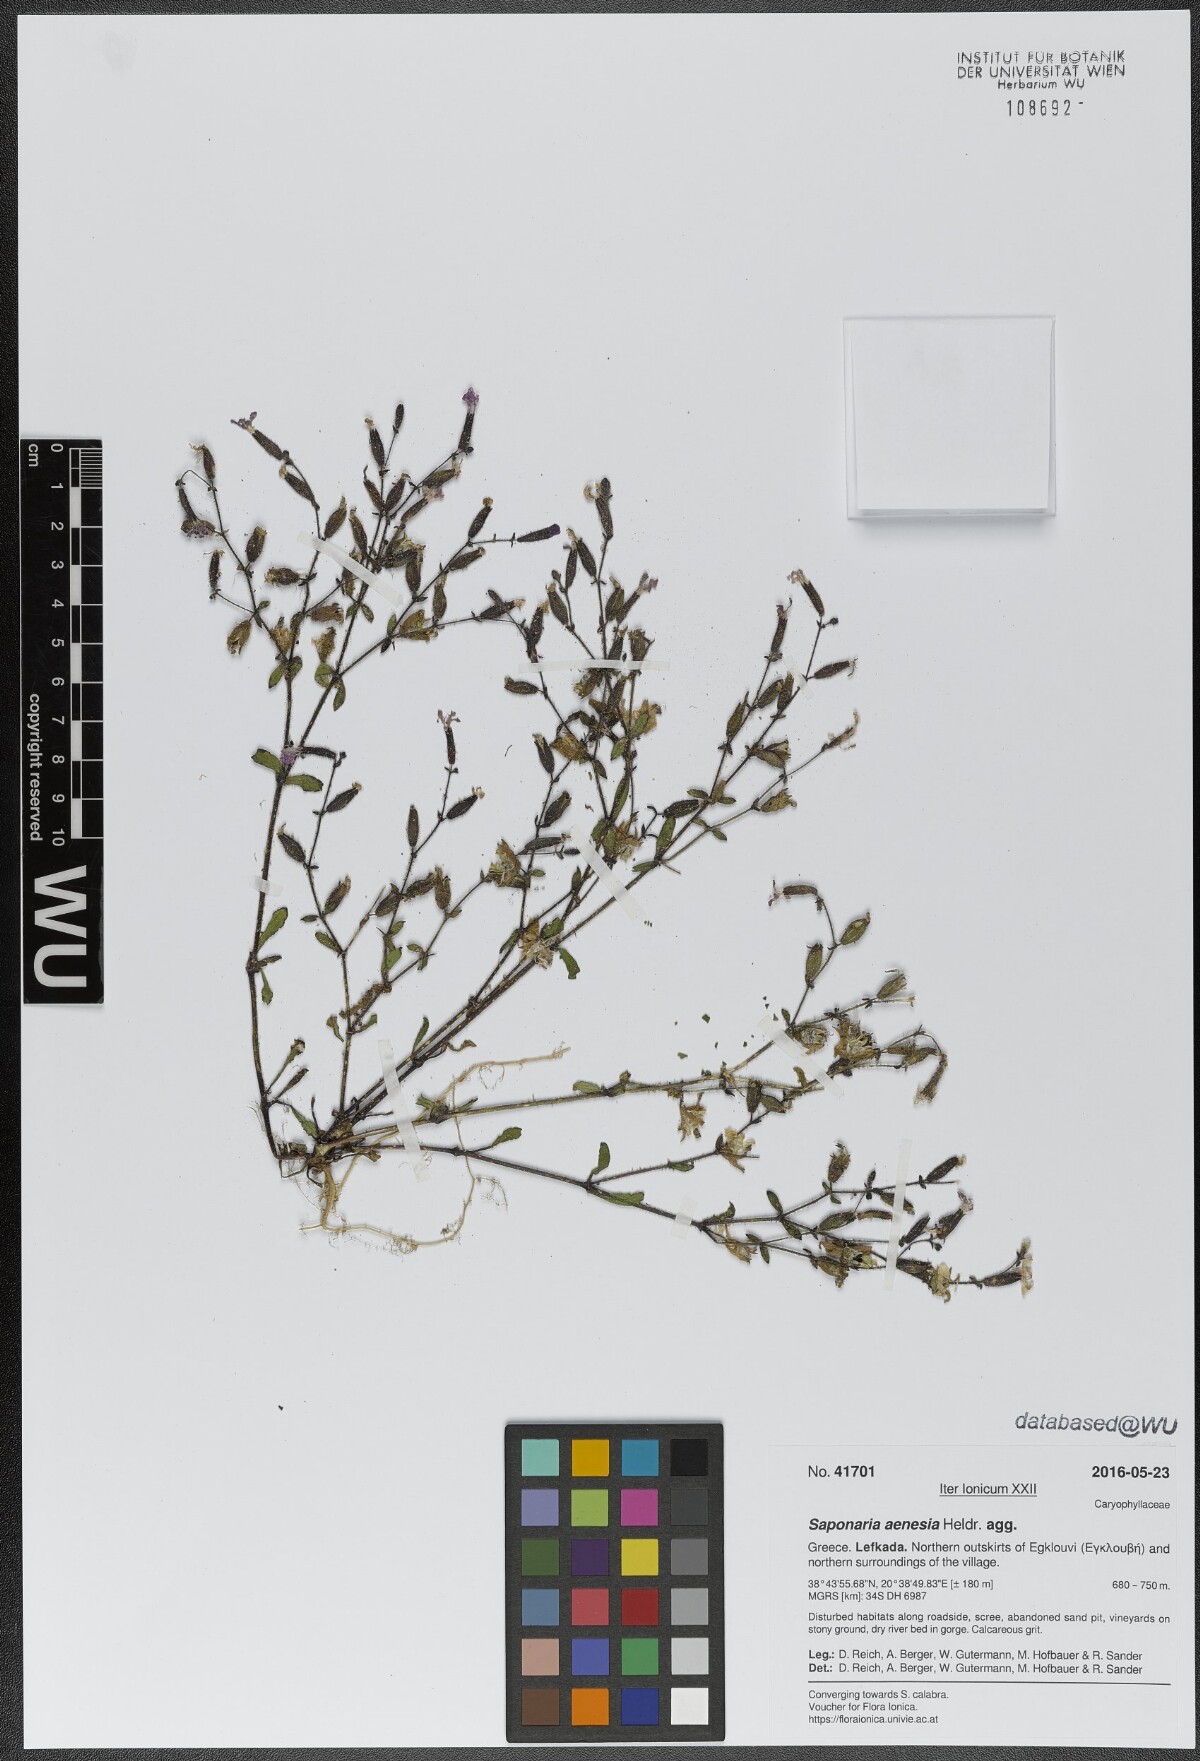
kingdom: Plantae
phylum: Tracheophyta
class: Magnoliopsida
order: Caryophyllales
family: Caryophyllaceae
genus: Saponaria
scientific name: Saponaria aenesia
